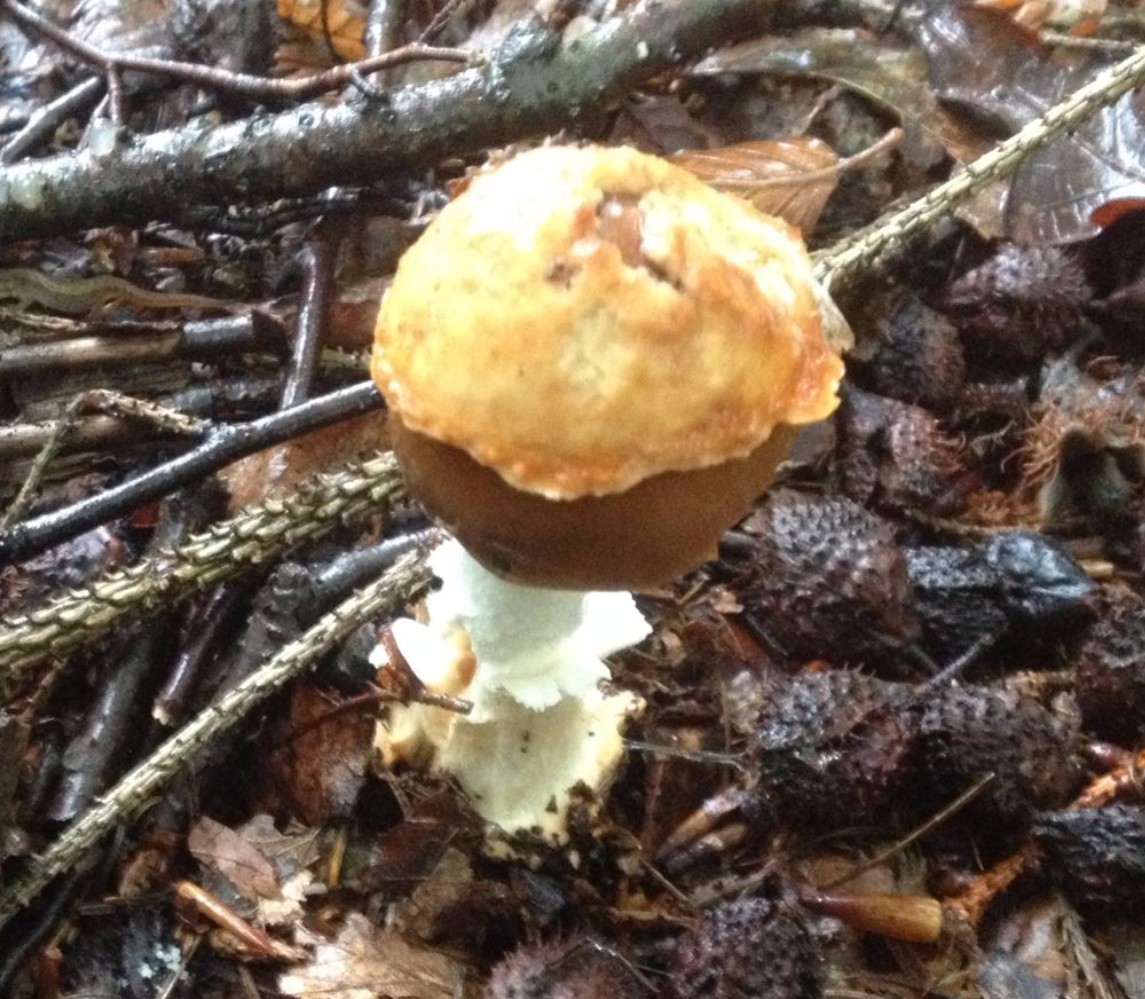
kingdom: Fungi
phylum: Basidiomycota
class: Agaricomycetes
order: Agaricales
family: Amanitaceae
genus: Amanita
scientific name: Amanita fulva
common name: brun kam-fluesvamp
